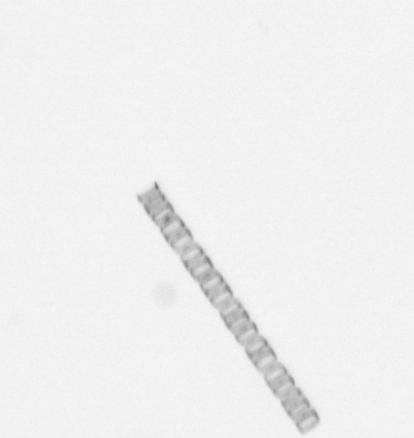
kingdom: Chromista
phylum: Ochrophyta
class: Bacillariophyceae
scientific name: Bacillariophyceae
